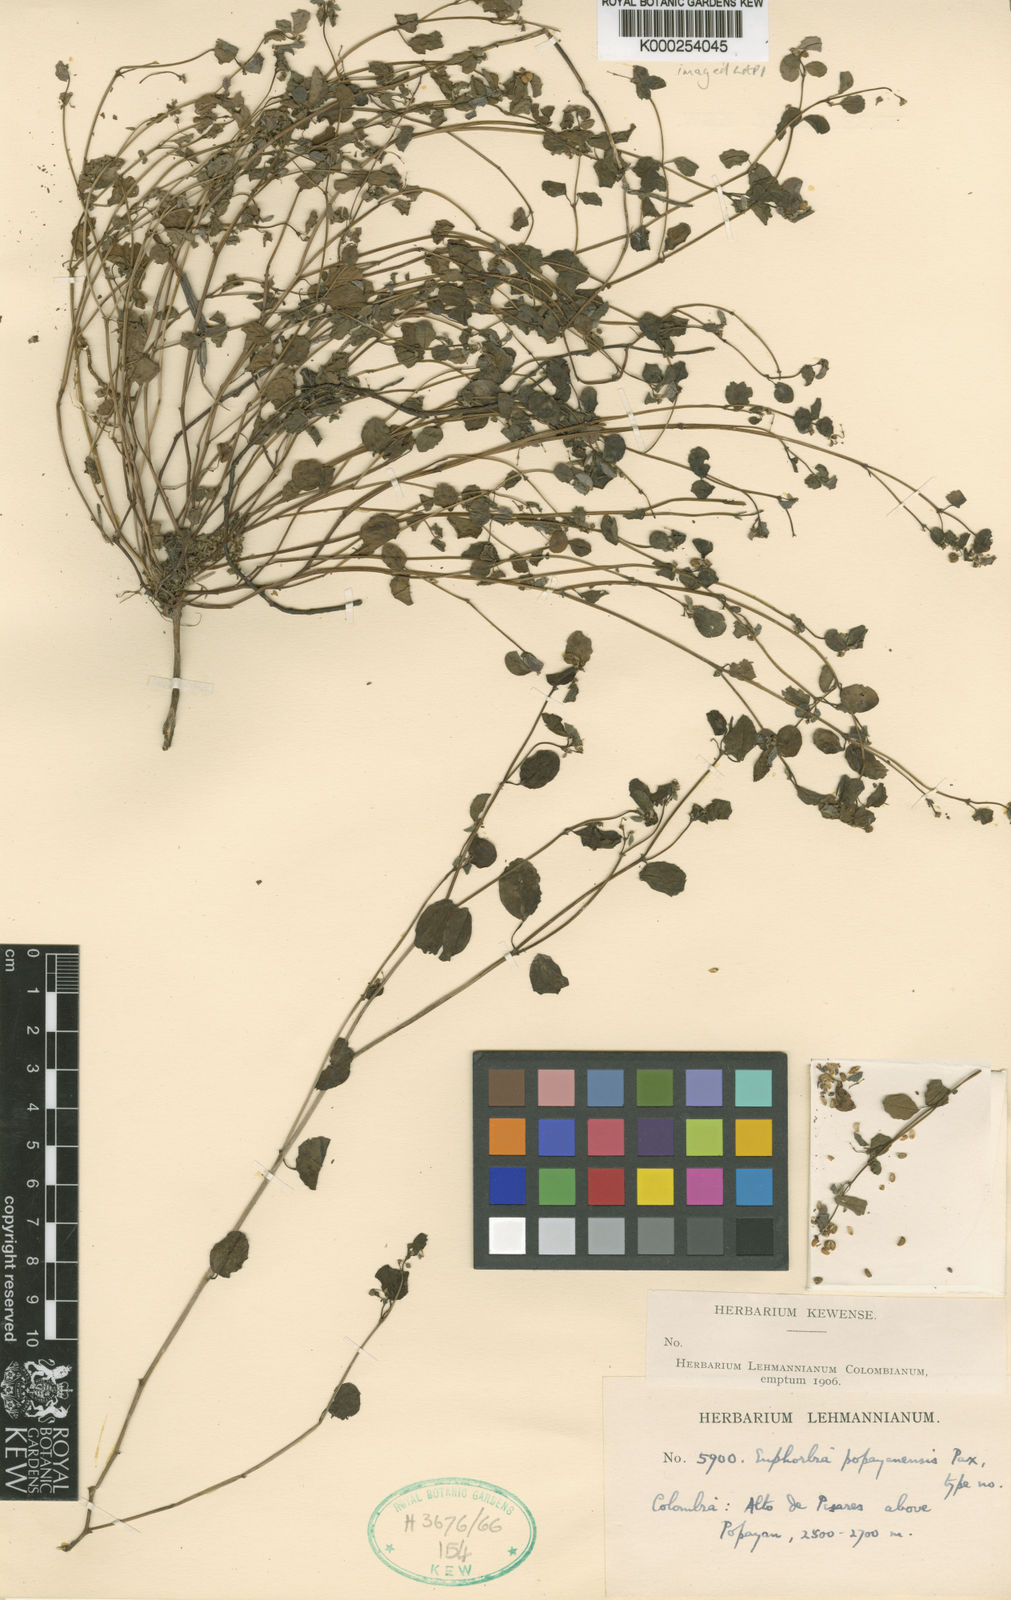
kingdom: Plantae
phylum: Tracheophyta
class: Magnoliopsida
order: Malpighiales
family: Euphorbiaceae
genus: Euphorbia
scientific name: Euphorbia fraseri
